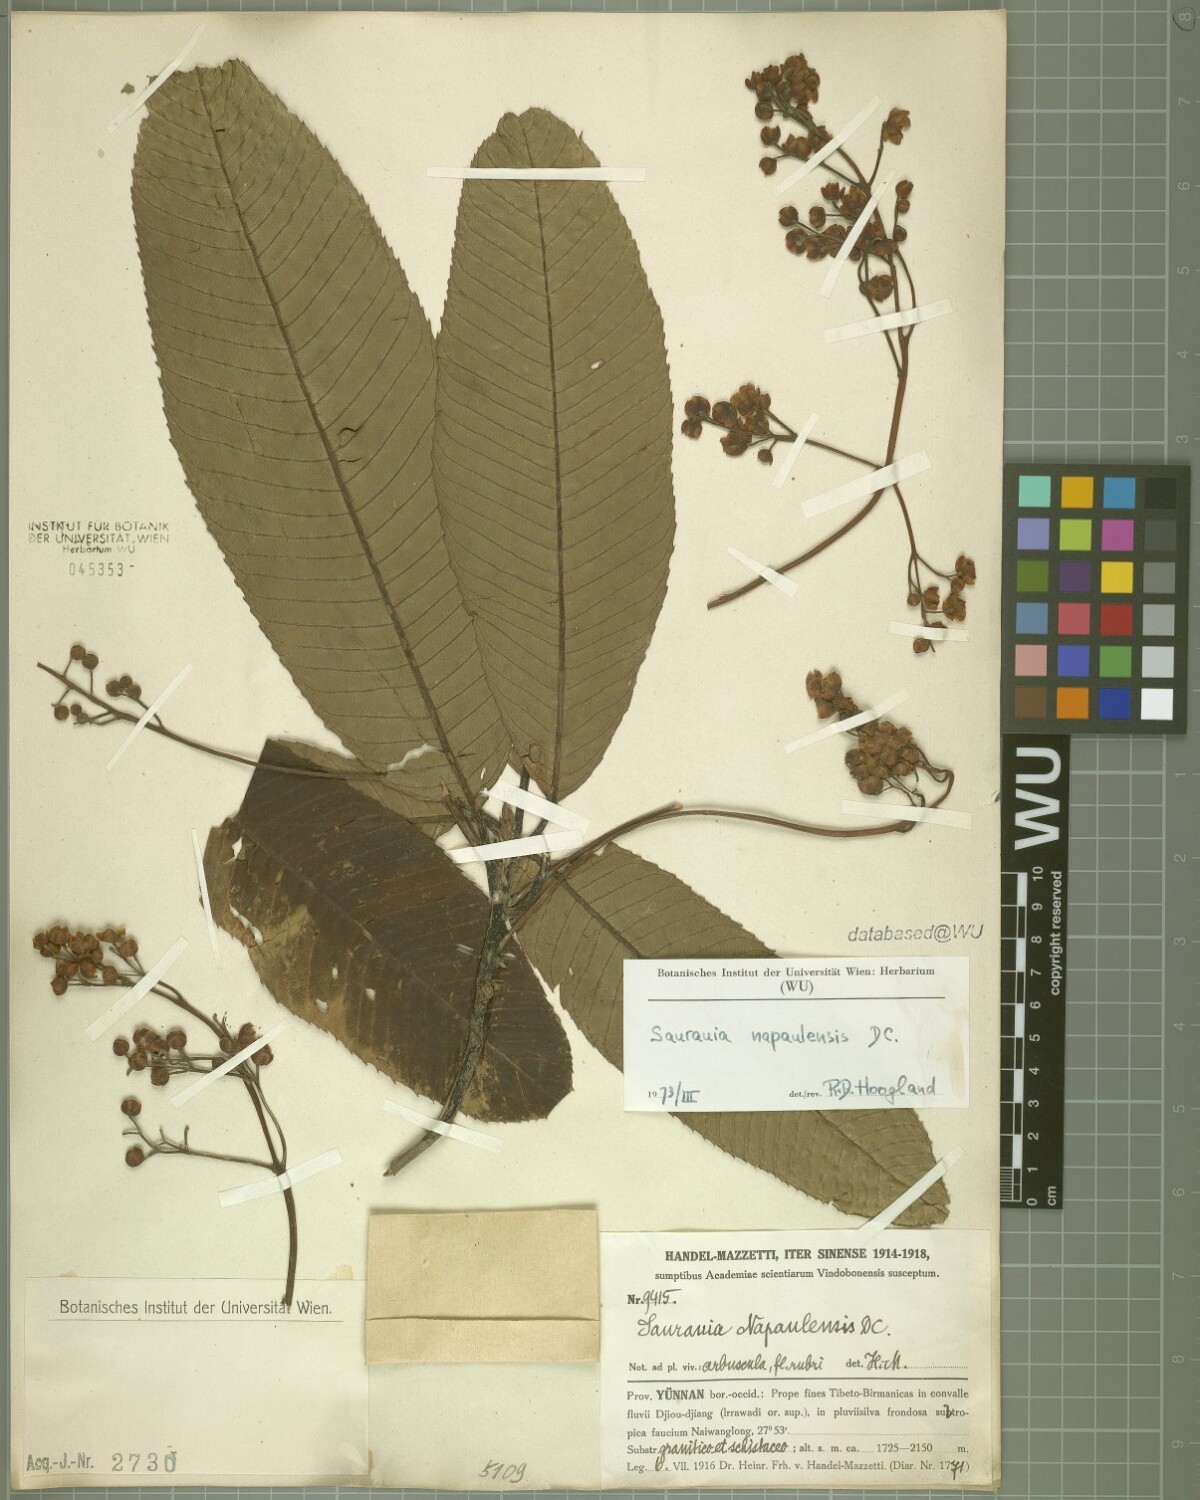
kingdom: Plantae
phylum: Tracheophyta
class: Magnoliopsida
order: Ericales
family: Actinidiaceae
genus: Saurauia
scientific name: Saurauia napaulensis
